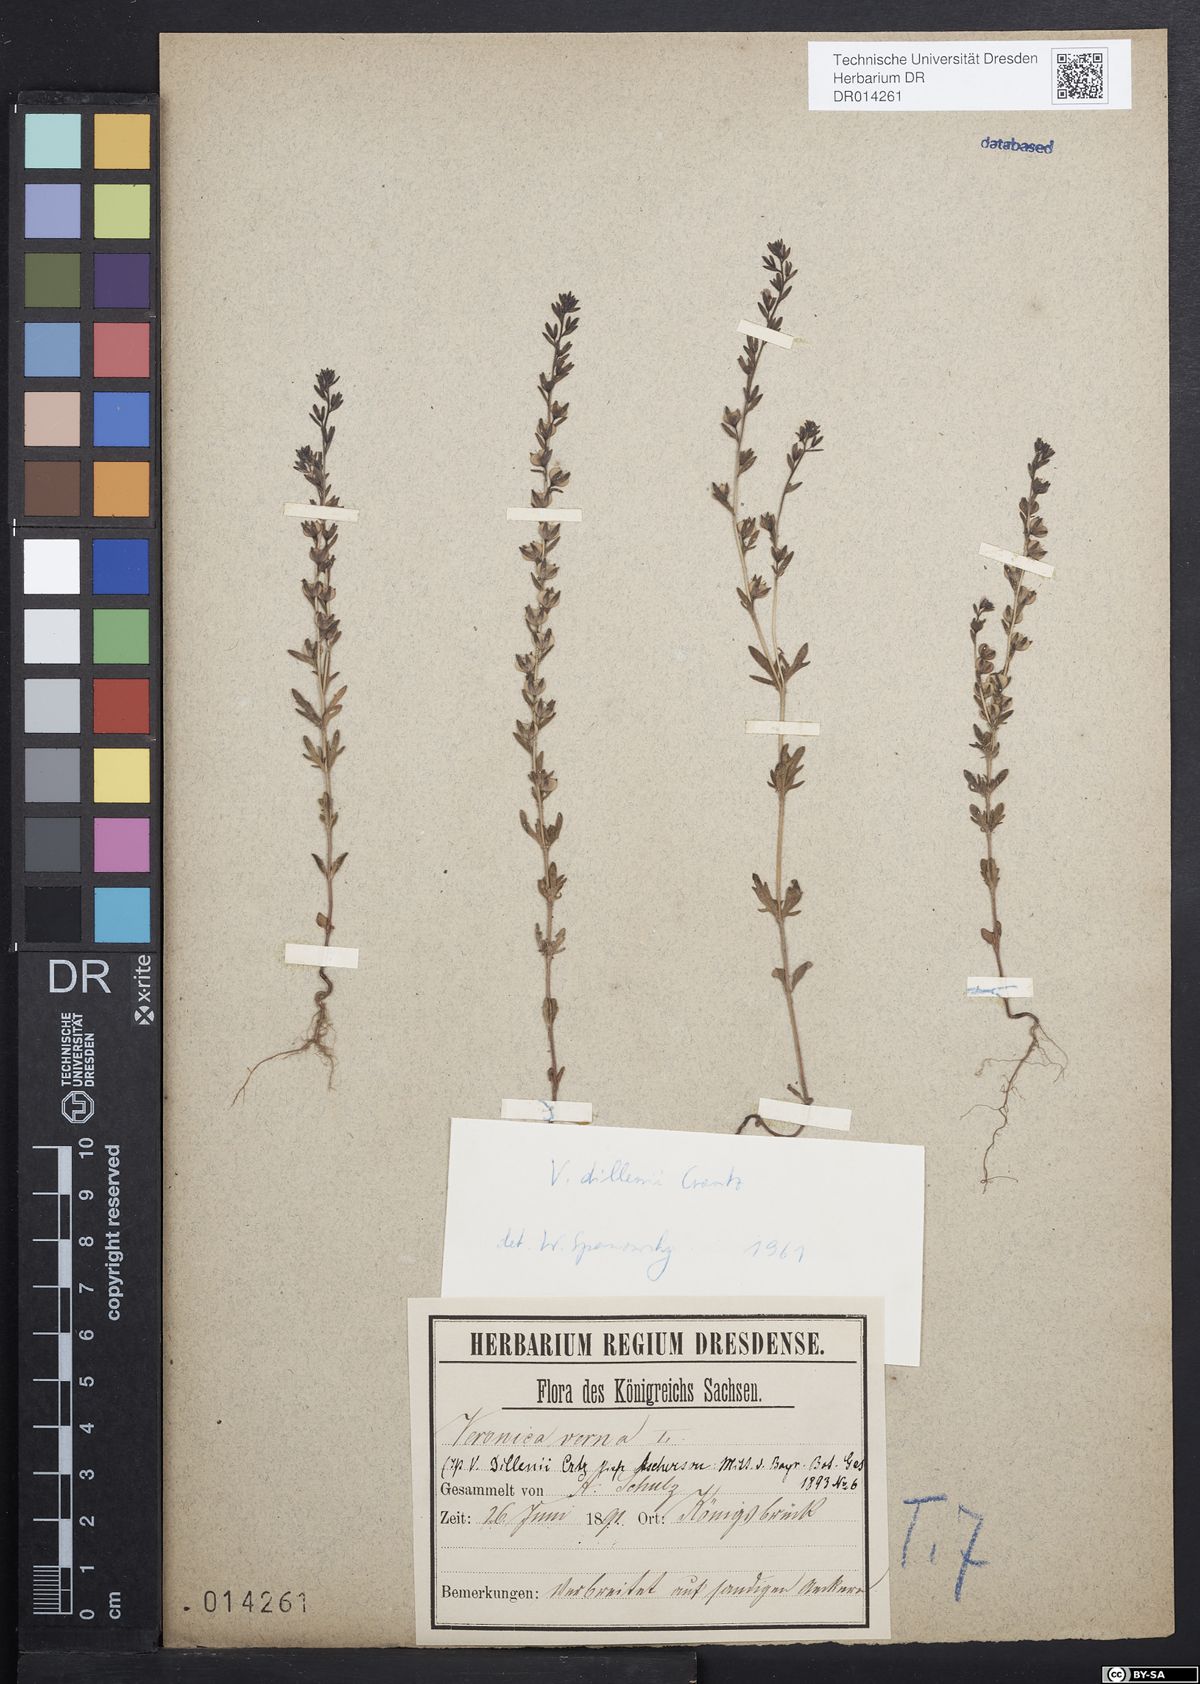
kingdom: Plantae
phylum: Tracheophyta
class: Magnoliopsida
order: Lamiales
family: Plantaginaceae
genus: Veronica
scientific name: Veronica dillenii
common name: Dillenius' speedwell
